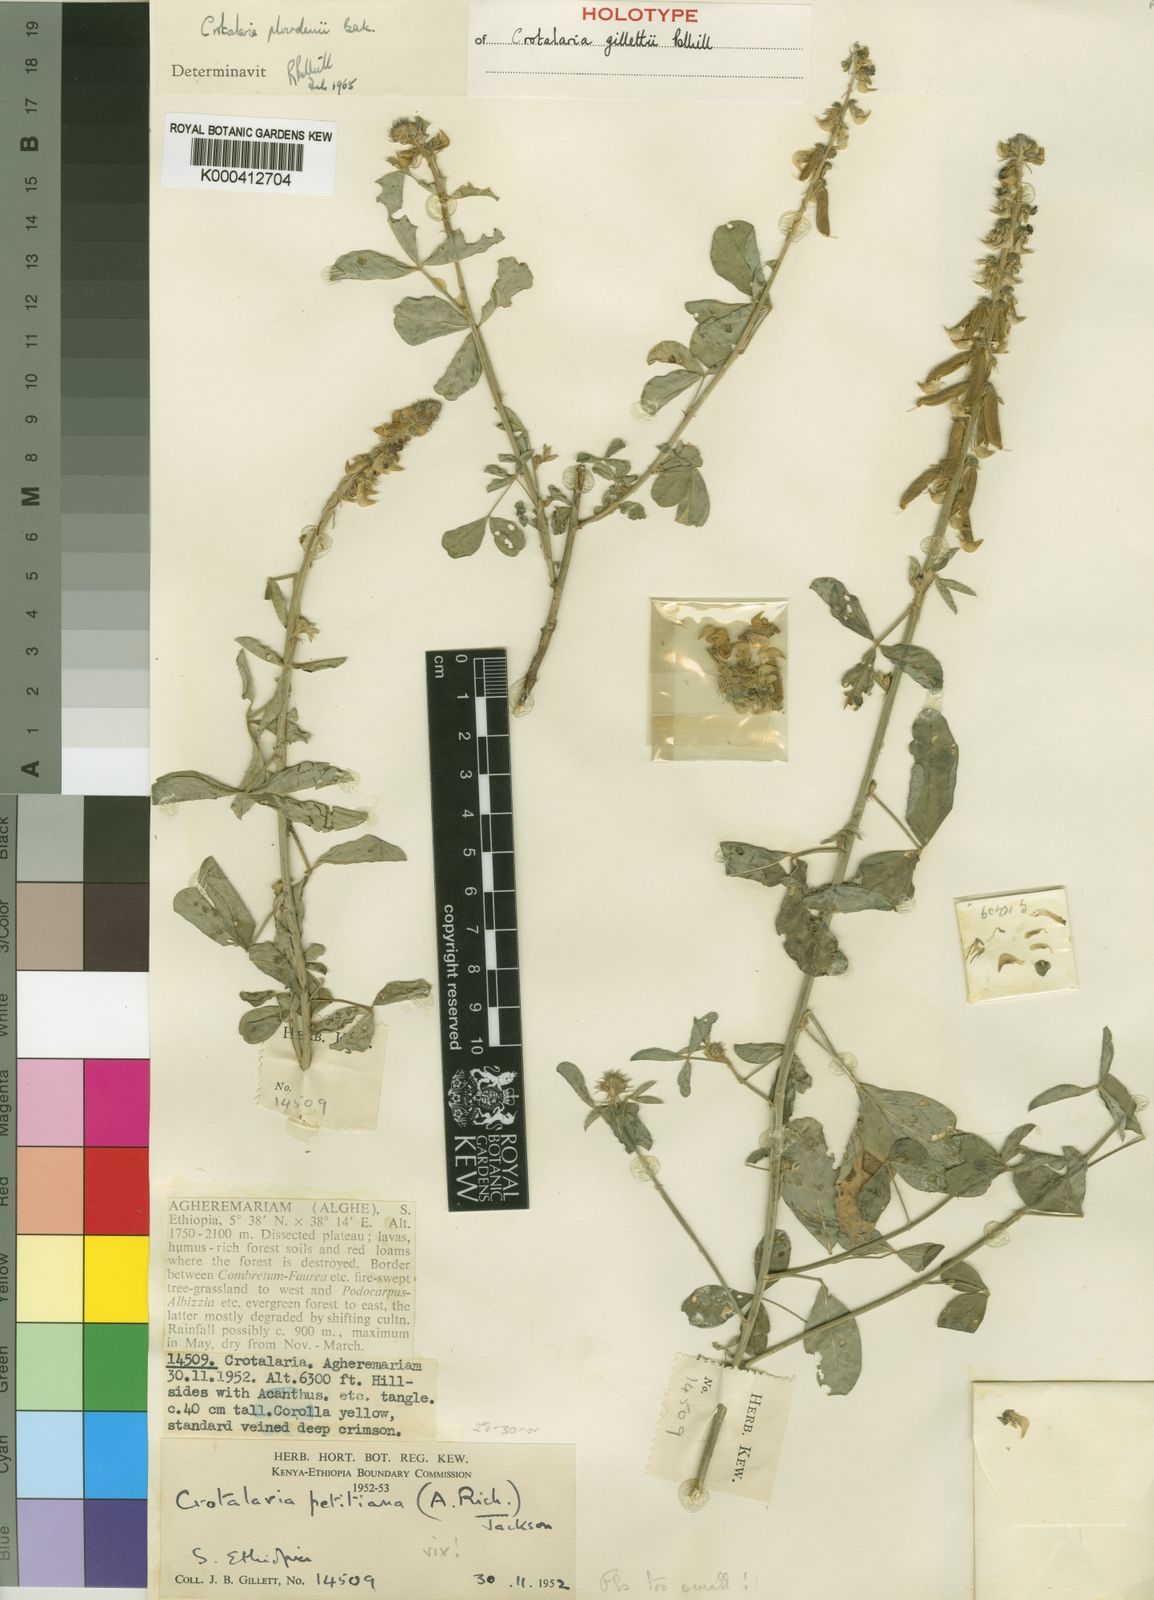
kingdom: Plantae
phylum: Tracheophyta
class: Magnoliopsida
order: Fabales
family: Fabaceae
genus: Crotalaria
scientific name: Crotalaria gillettii
